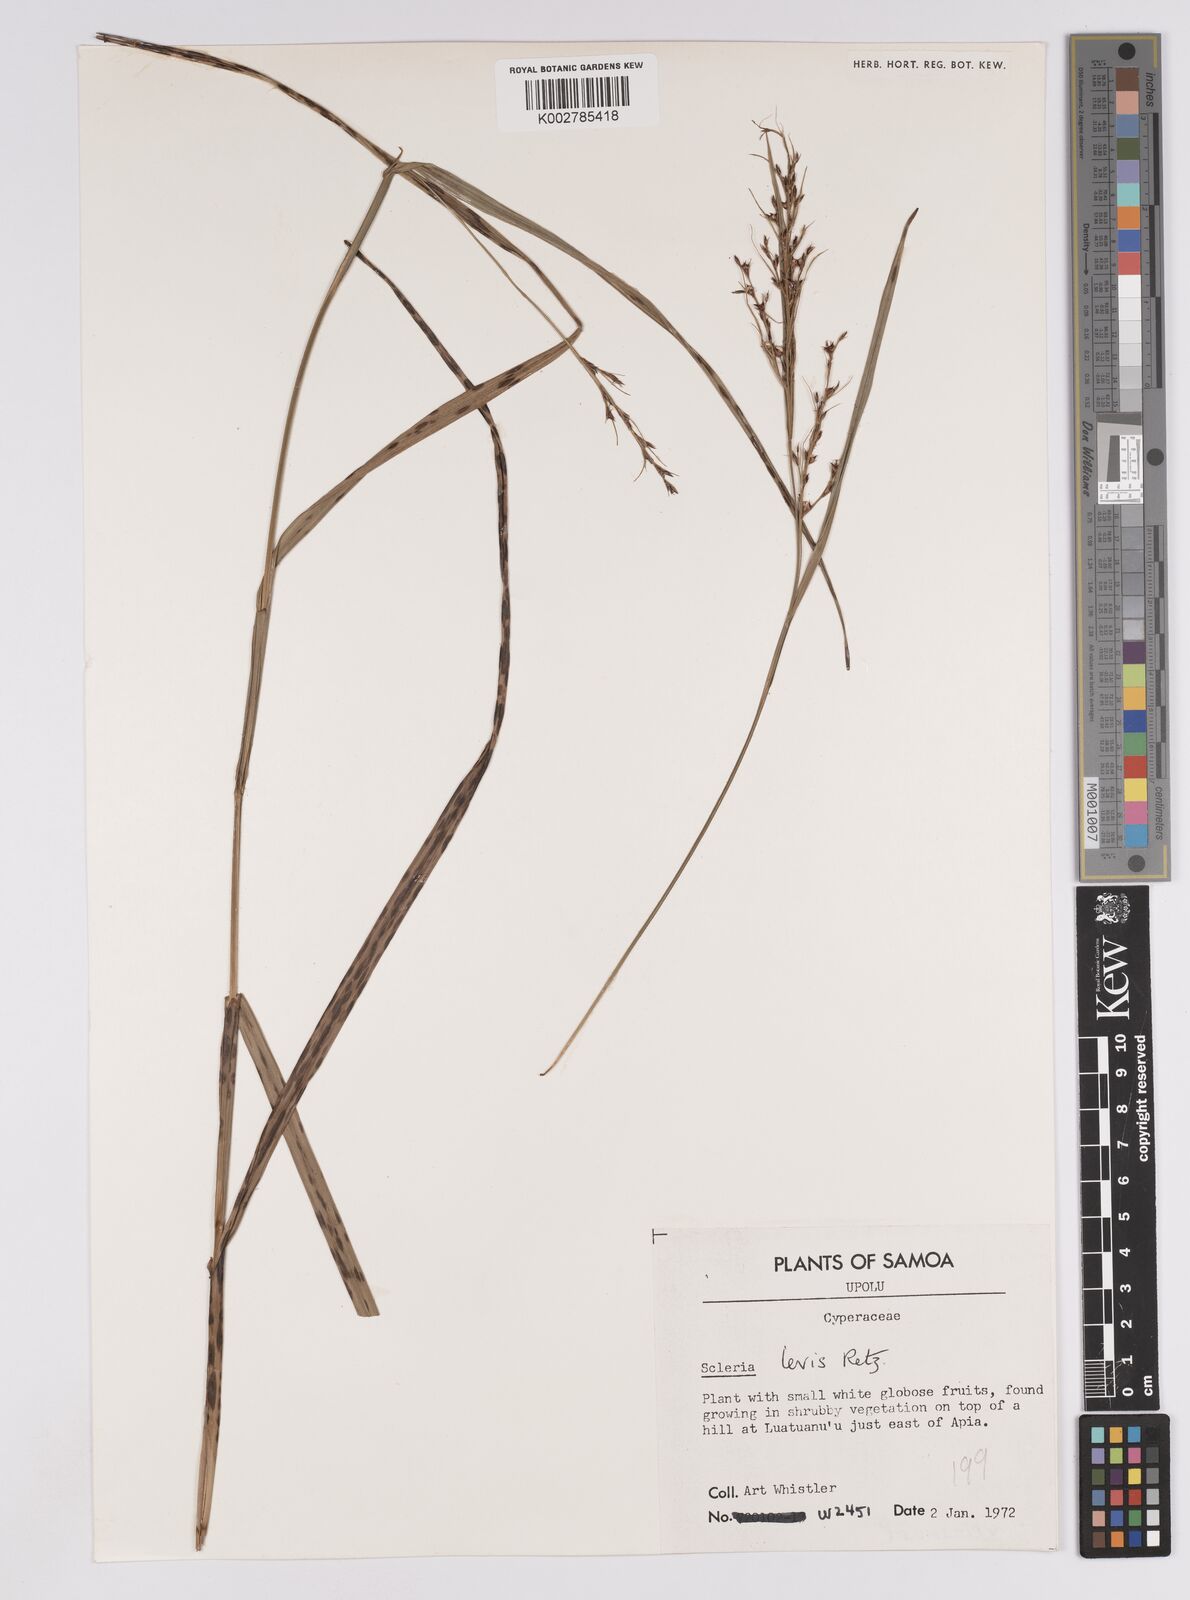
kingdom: Plantae
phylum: Tracheophyta
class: Liliopsida
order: Poales
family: Cyperaceae
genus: Scleria
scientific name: Scleria levis
